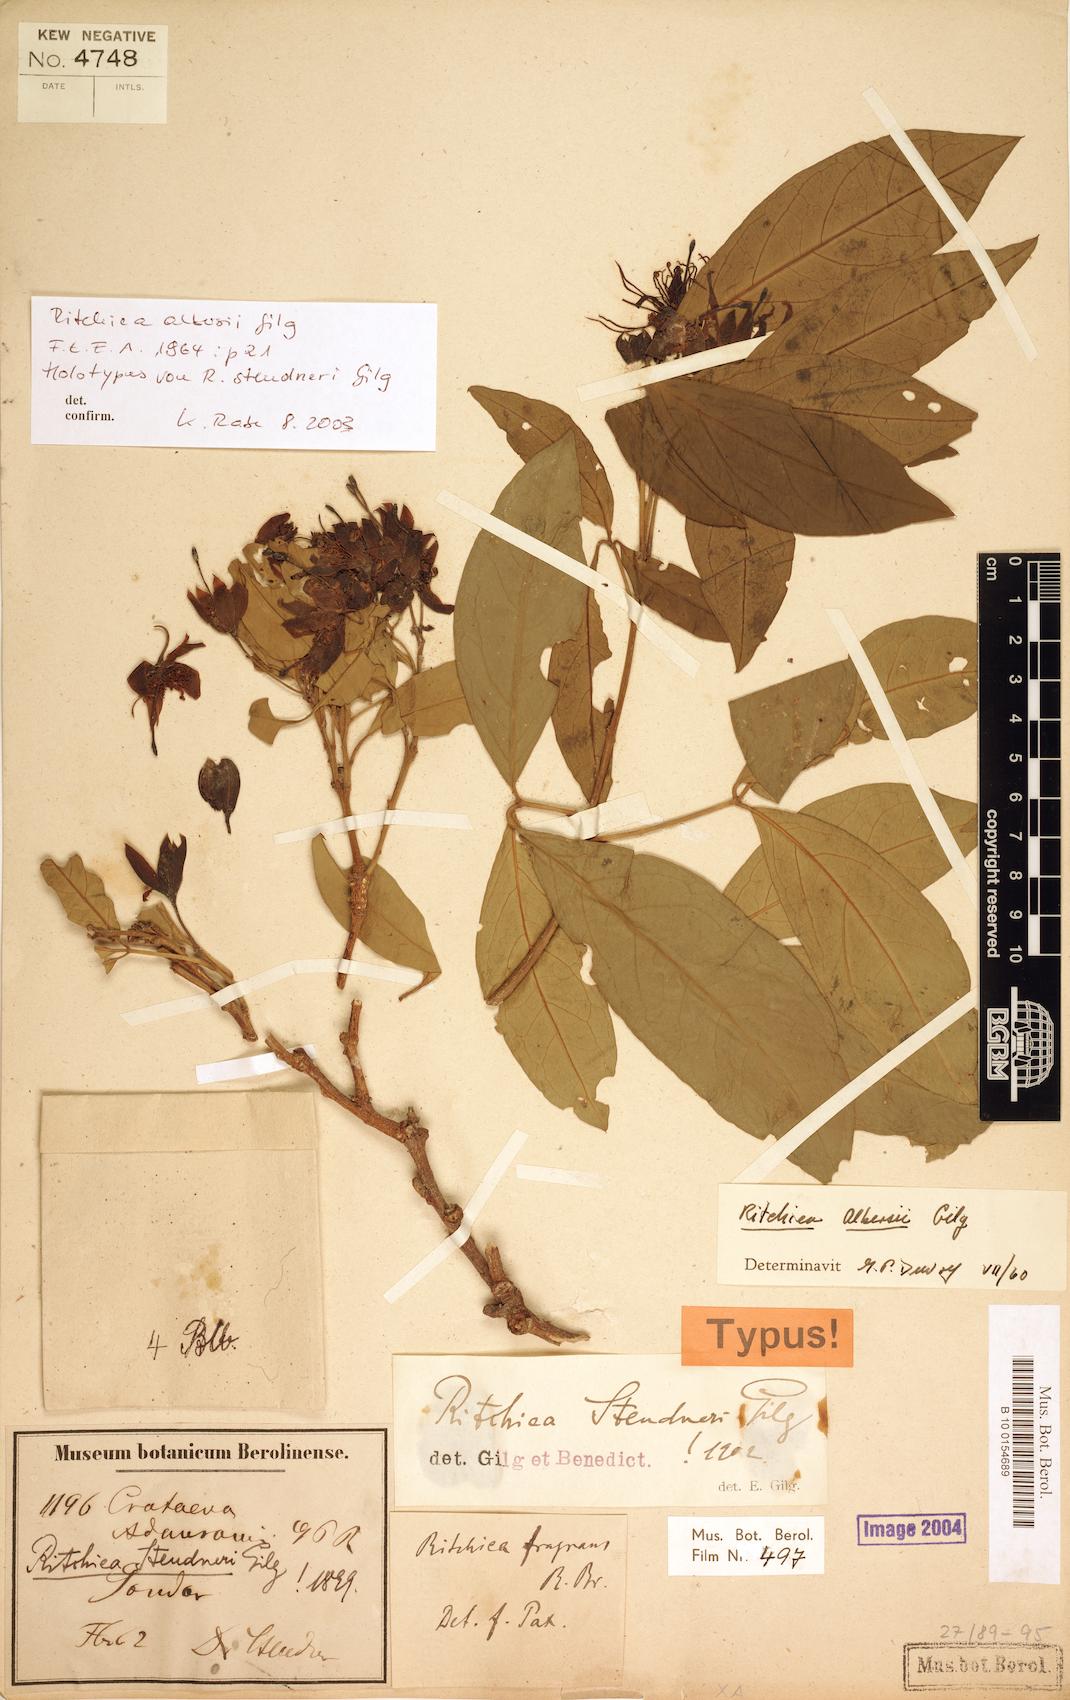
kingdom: Plantae
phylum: Tracheophyta
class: Magnoliopsida
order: Brassicales
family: Capparaceae
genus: Ritchiea
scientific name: Ritchiea albersii
